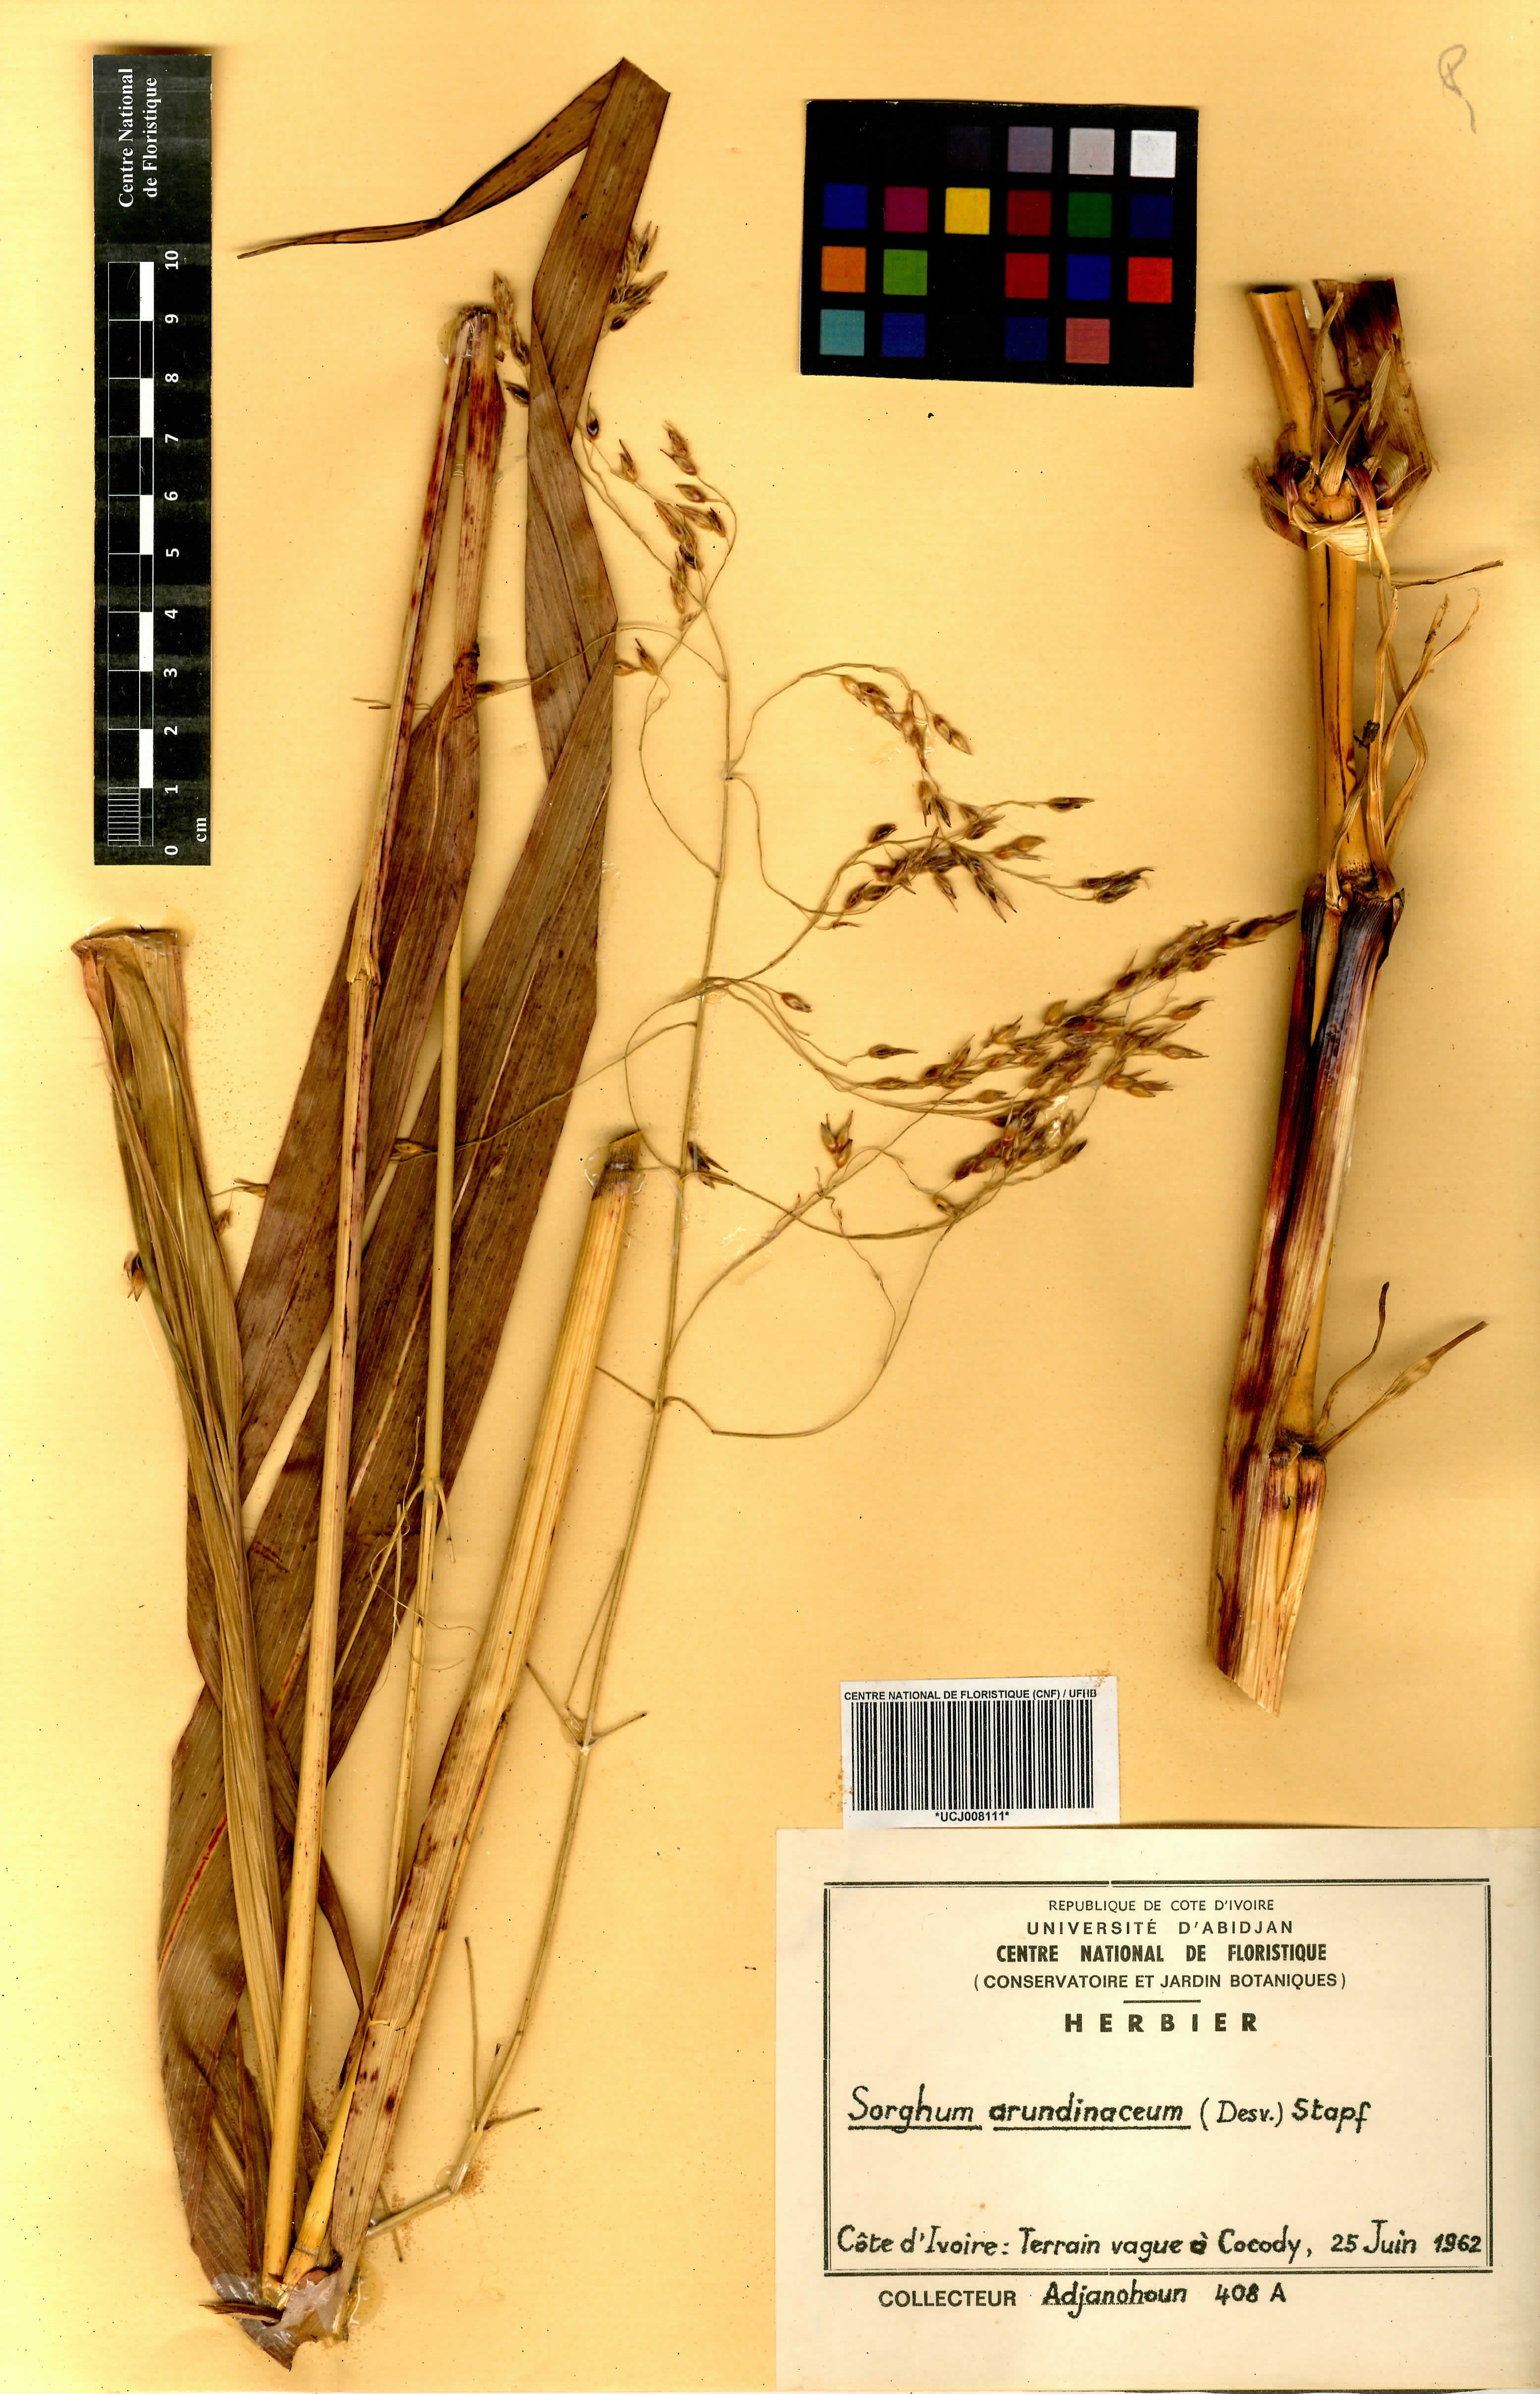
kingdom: Plantae
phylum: Tracheophyta
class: Liliopsida
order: Poales
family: Poaceae
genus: Sorghum
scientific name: Sorghum arundinaceum
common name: Sorghum
